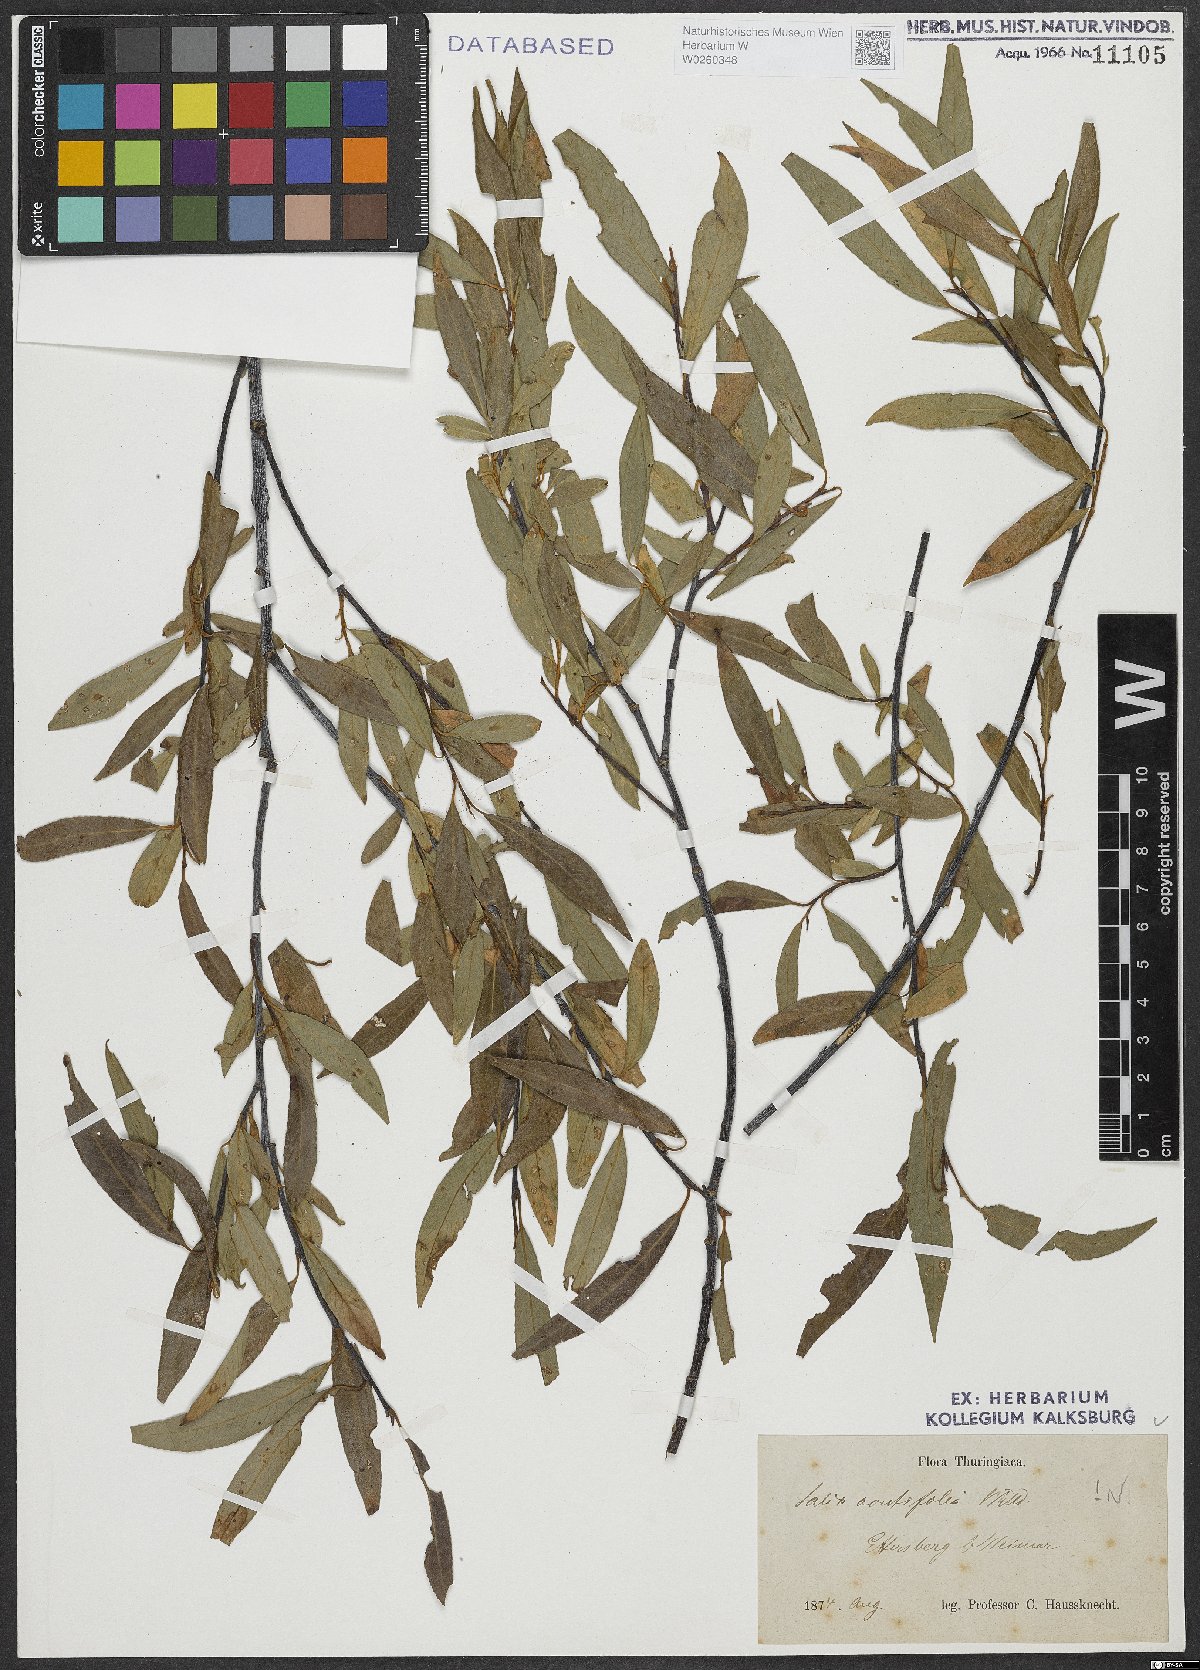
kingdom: Plantae
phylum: Tracheophyta
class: Magnoliopsida
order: Malpighiales
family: Salicaceae
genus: Salix
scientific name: Salix acutifolia
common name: Siberian violet-willow
